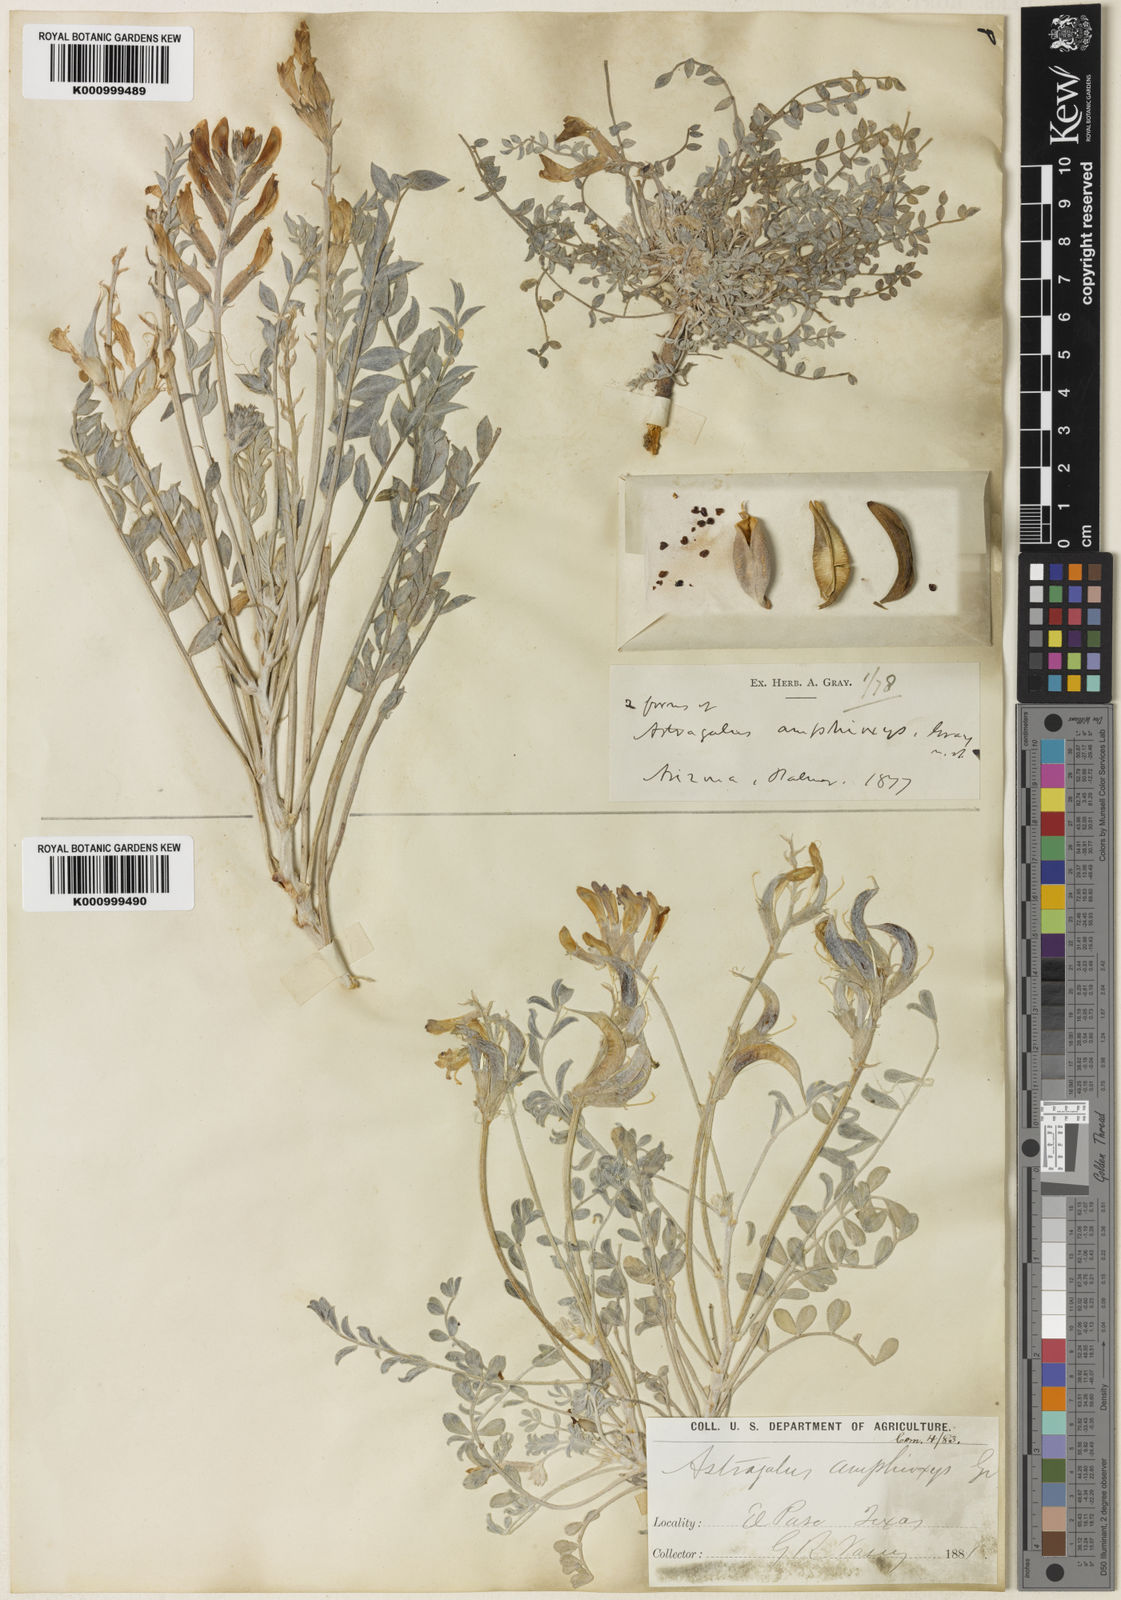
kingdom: Plantae
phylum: Tracheophyta
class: Magnoliopsida
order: Fabales
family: Fabaceae
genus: Astragalus
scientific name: Astragalus amphioxys
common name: Crescent milk-vetch
